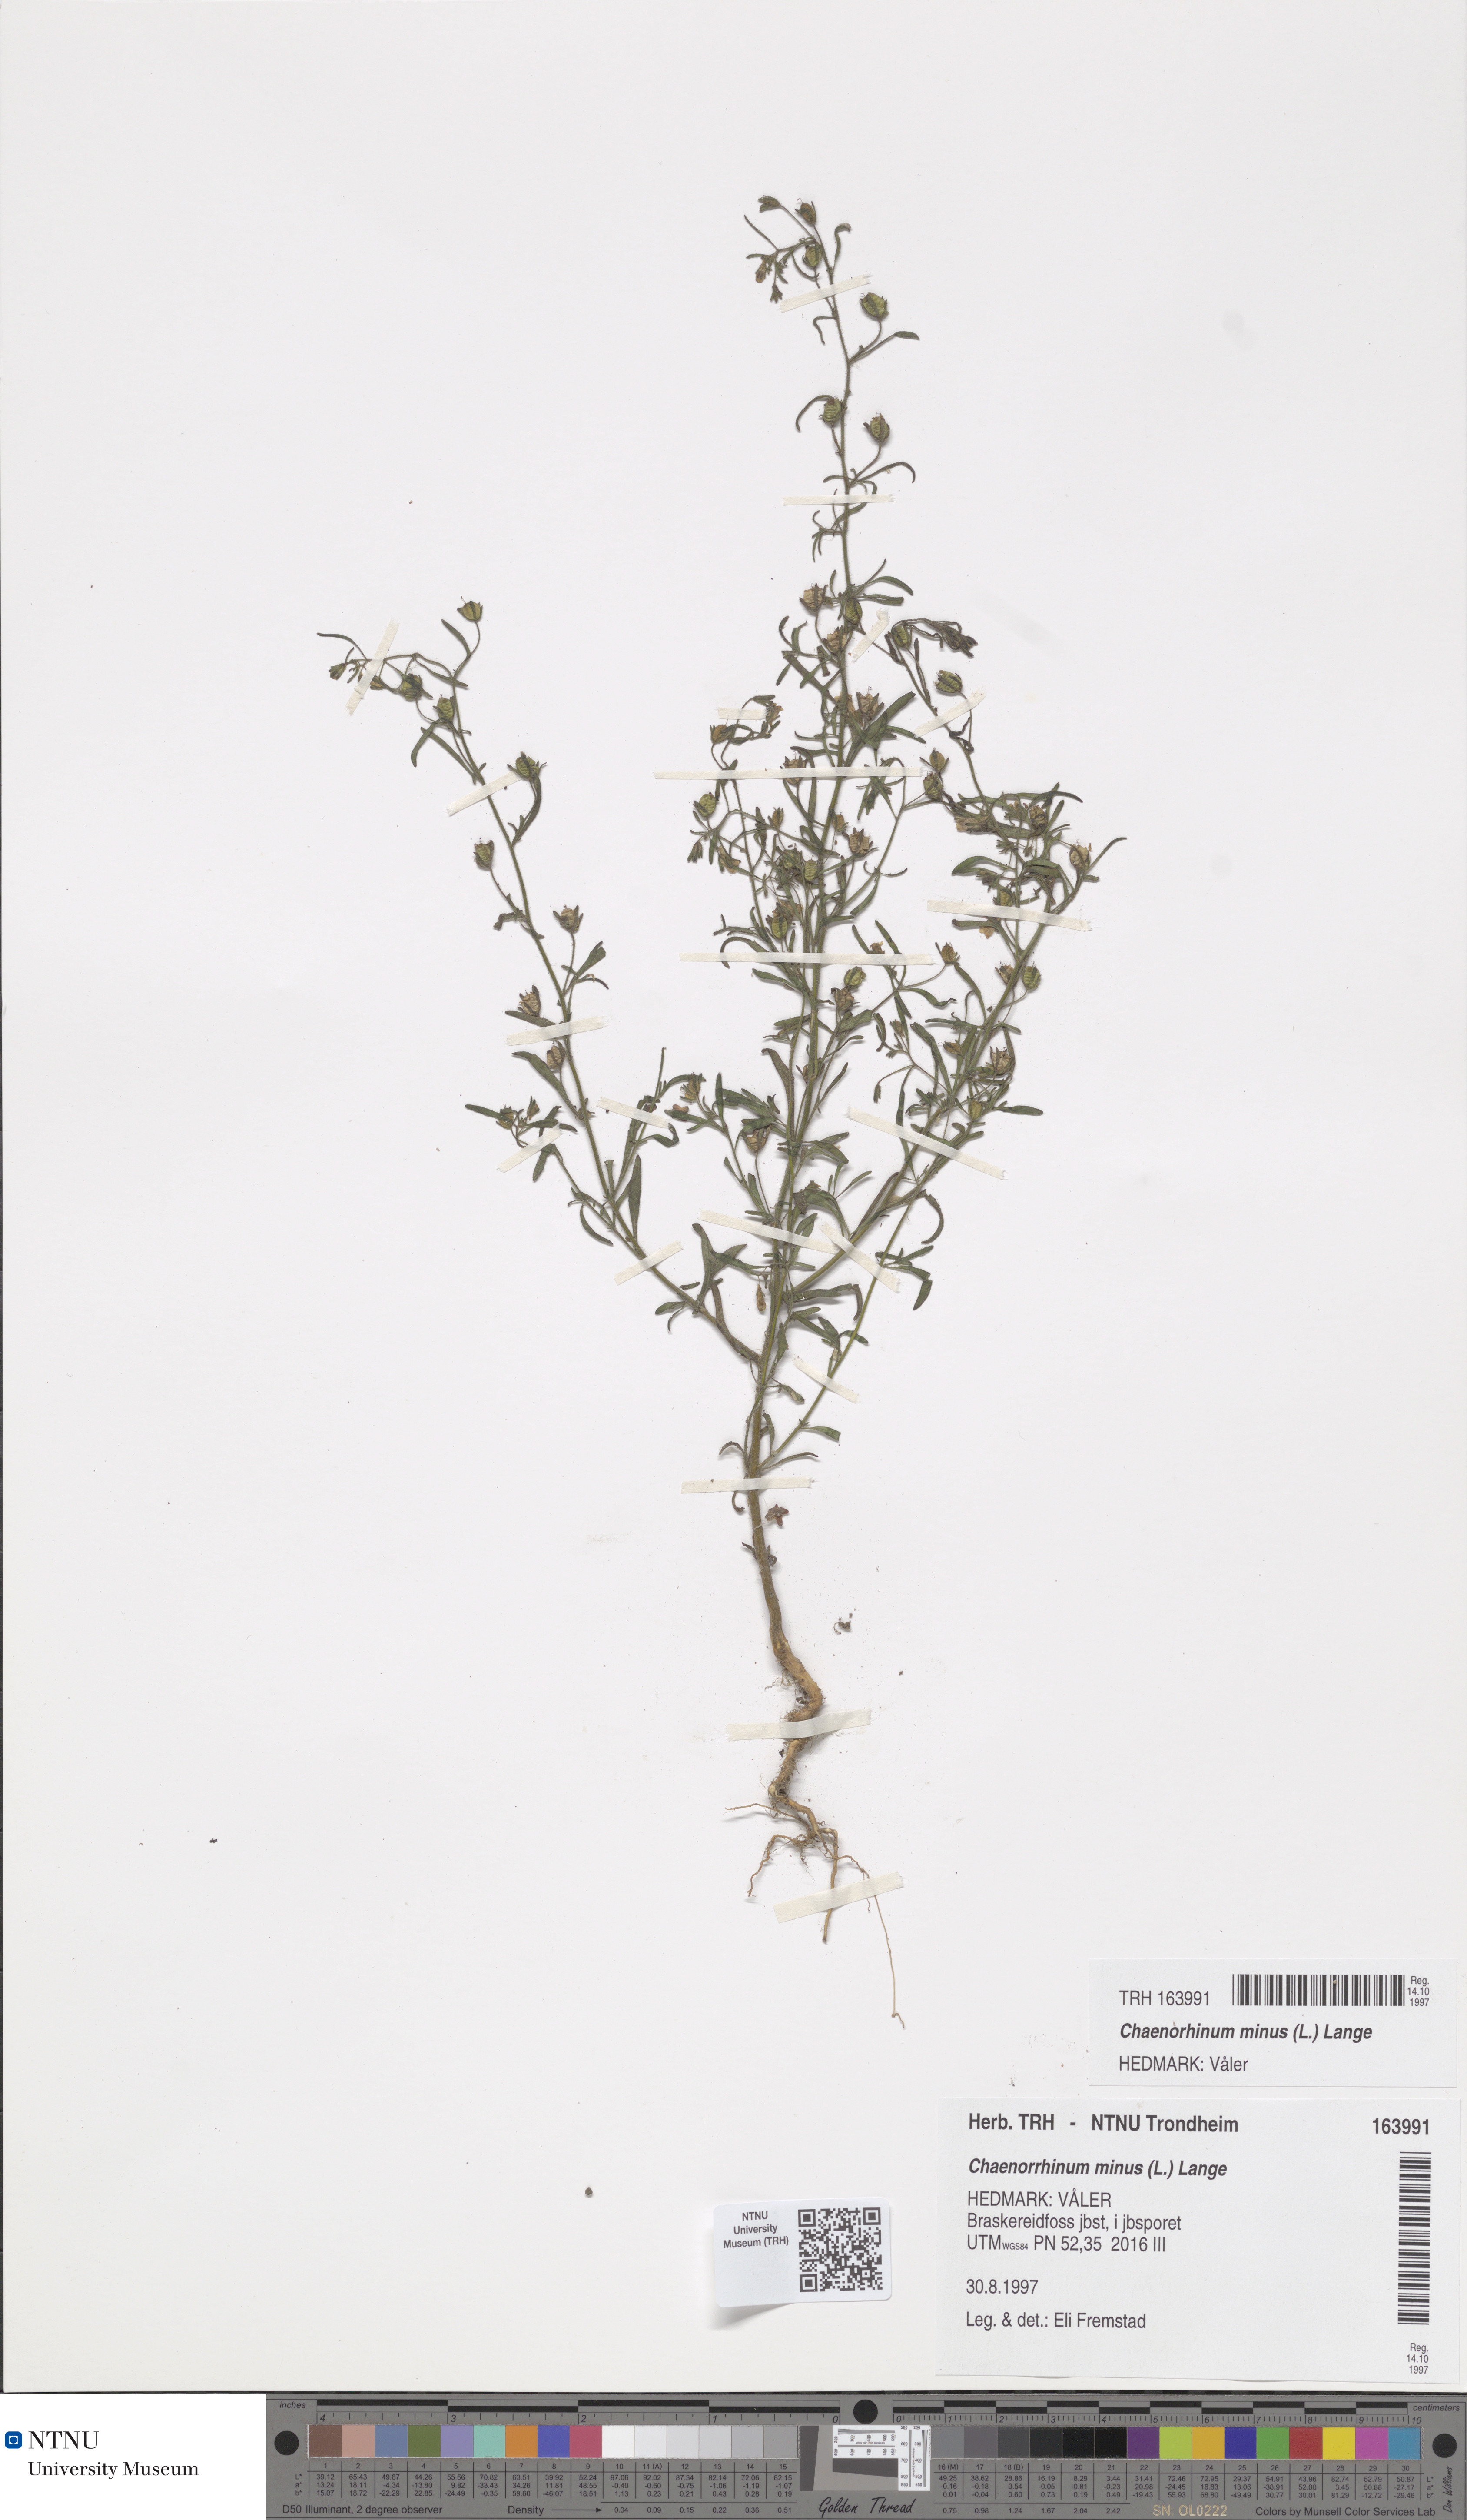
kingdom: Plantae
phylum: Tracheophyta
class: Magnoliopsida
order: Lamiales
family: Plantaginaceae
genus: Chaenorhinum
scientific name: Chaenorhinum minus
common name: Dwarf snapdragon
